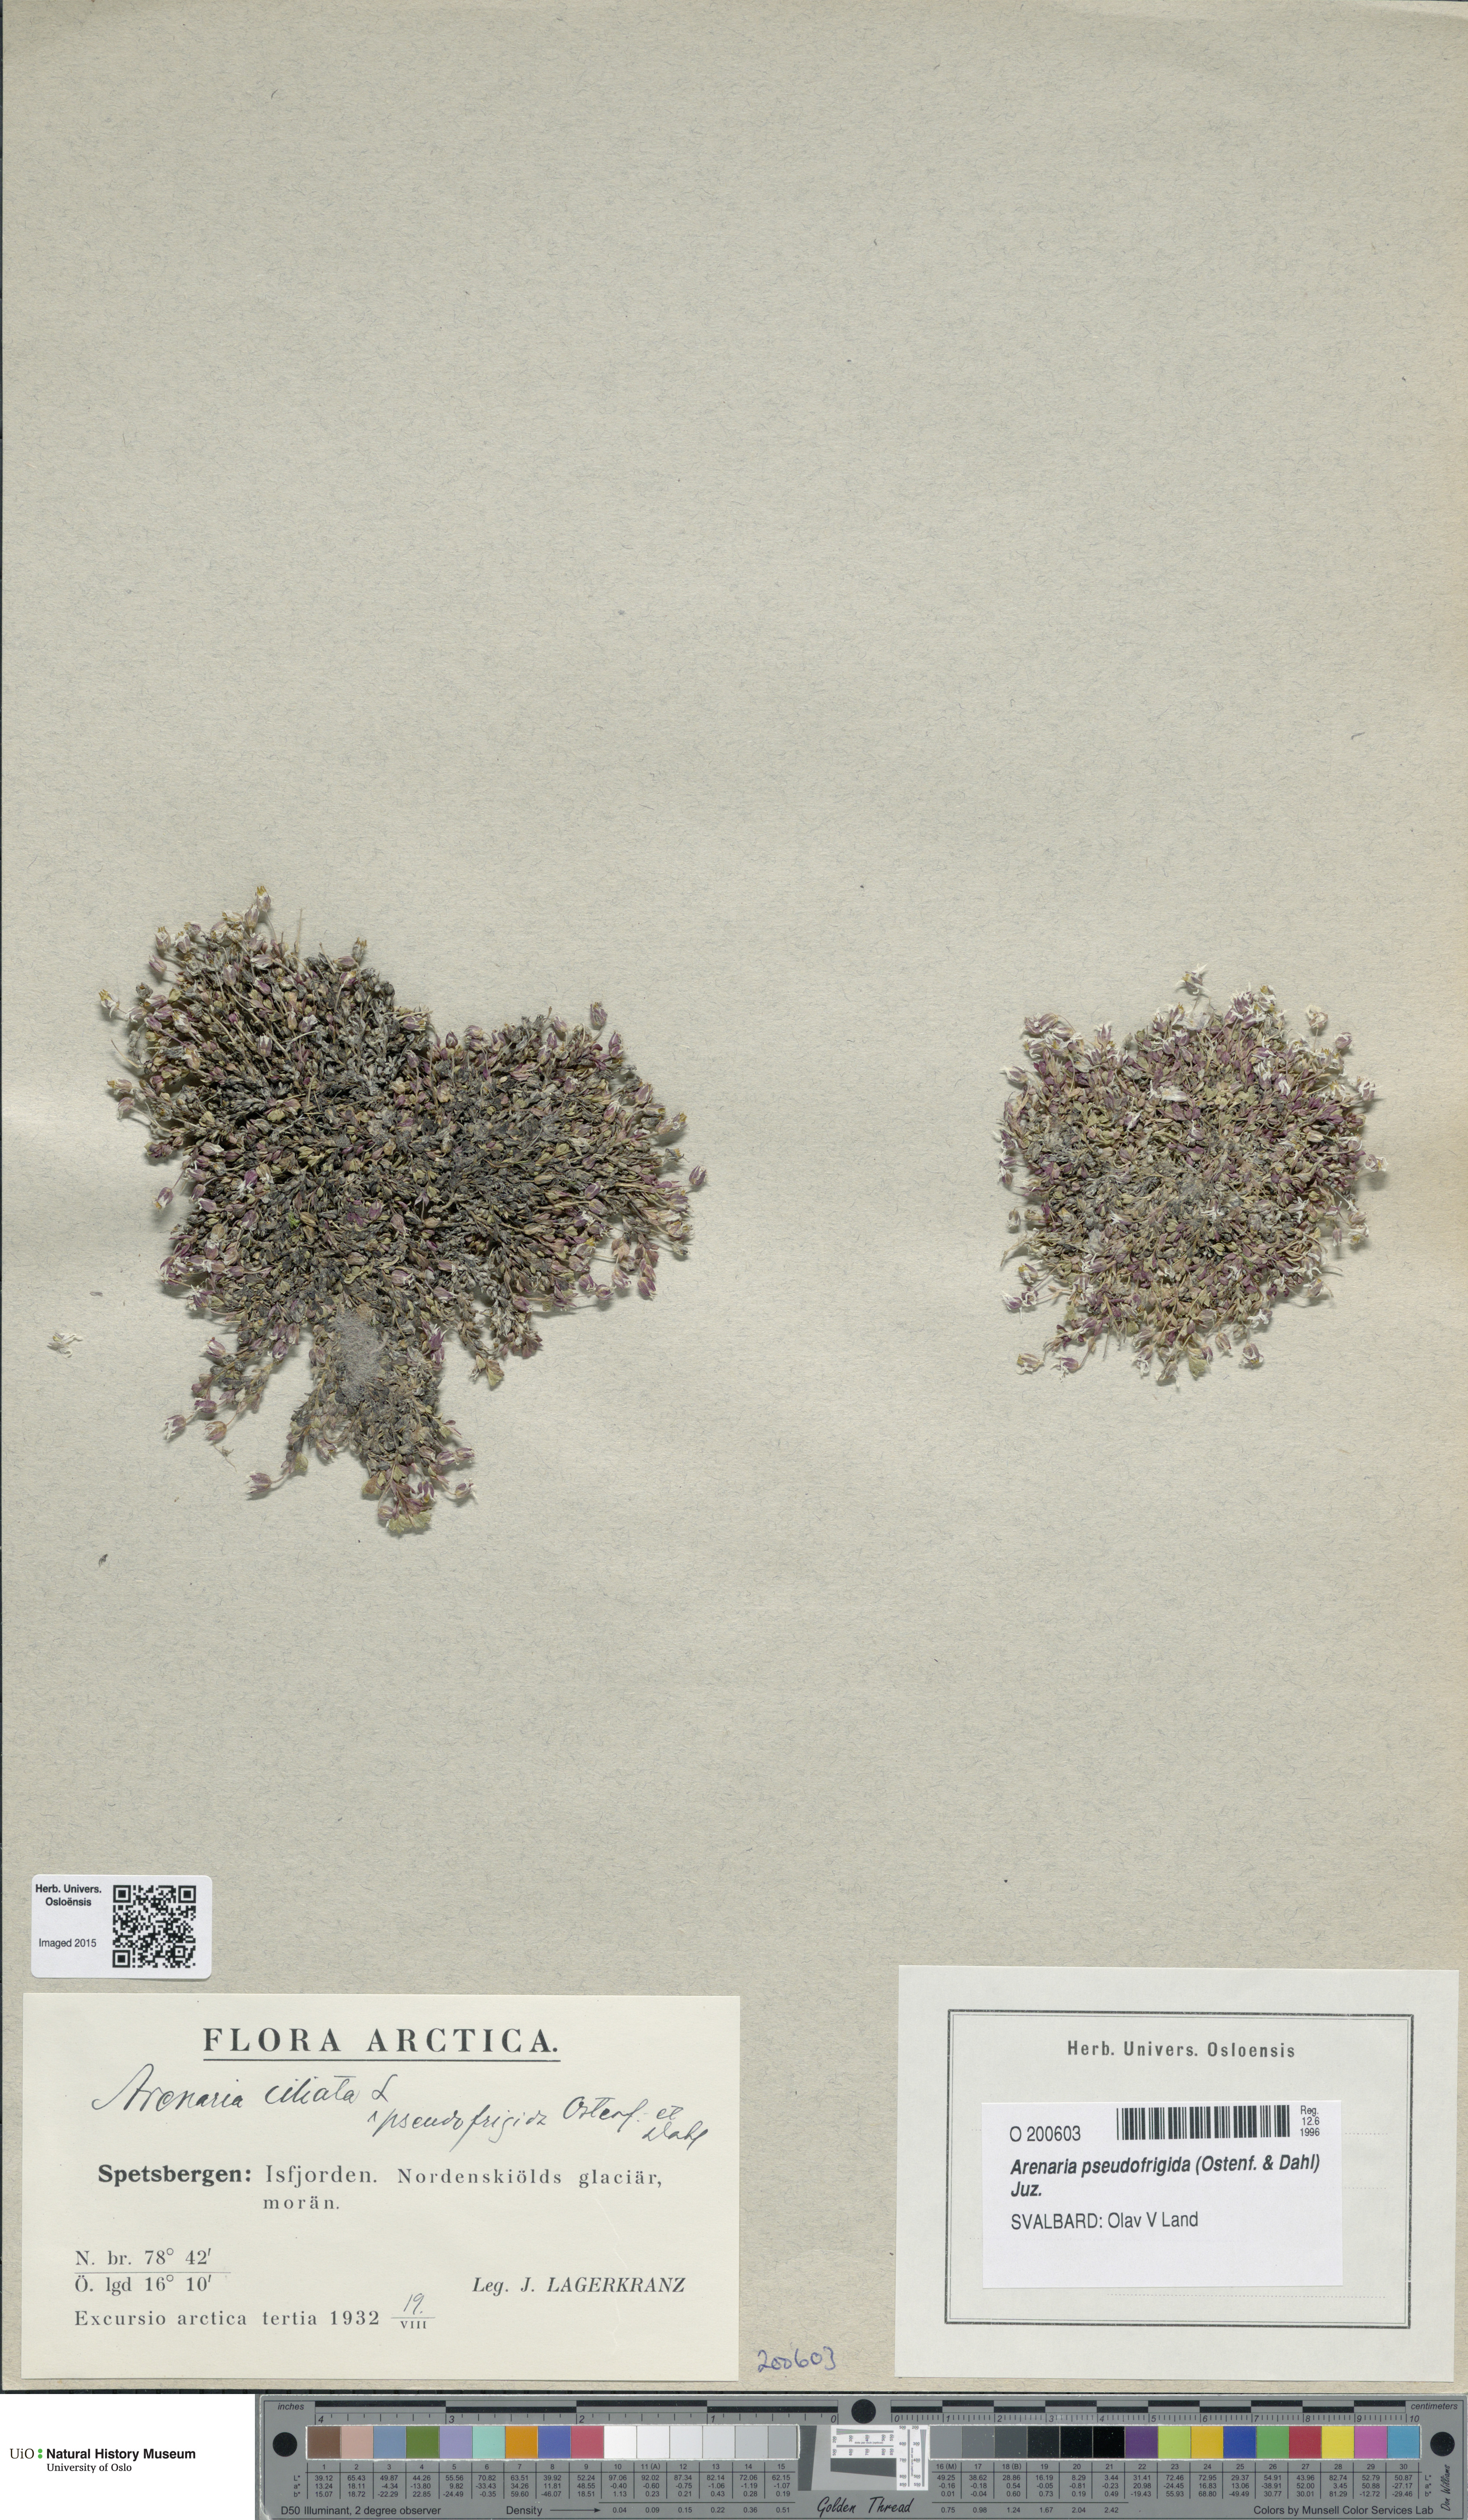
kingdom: Plantae
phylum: Tracheophyta
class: Magnoliopsida
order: Caryophyllales
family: Caryophyllaceae
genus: Arenaria
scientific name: Arenaria pseudofrigida
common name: Tundra sandwort
